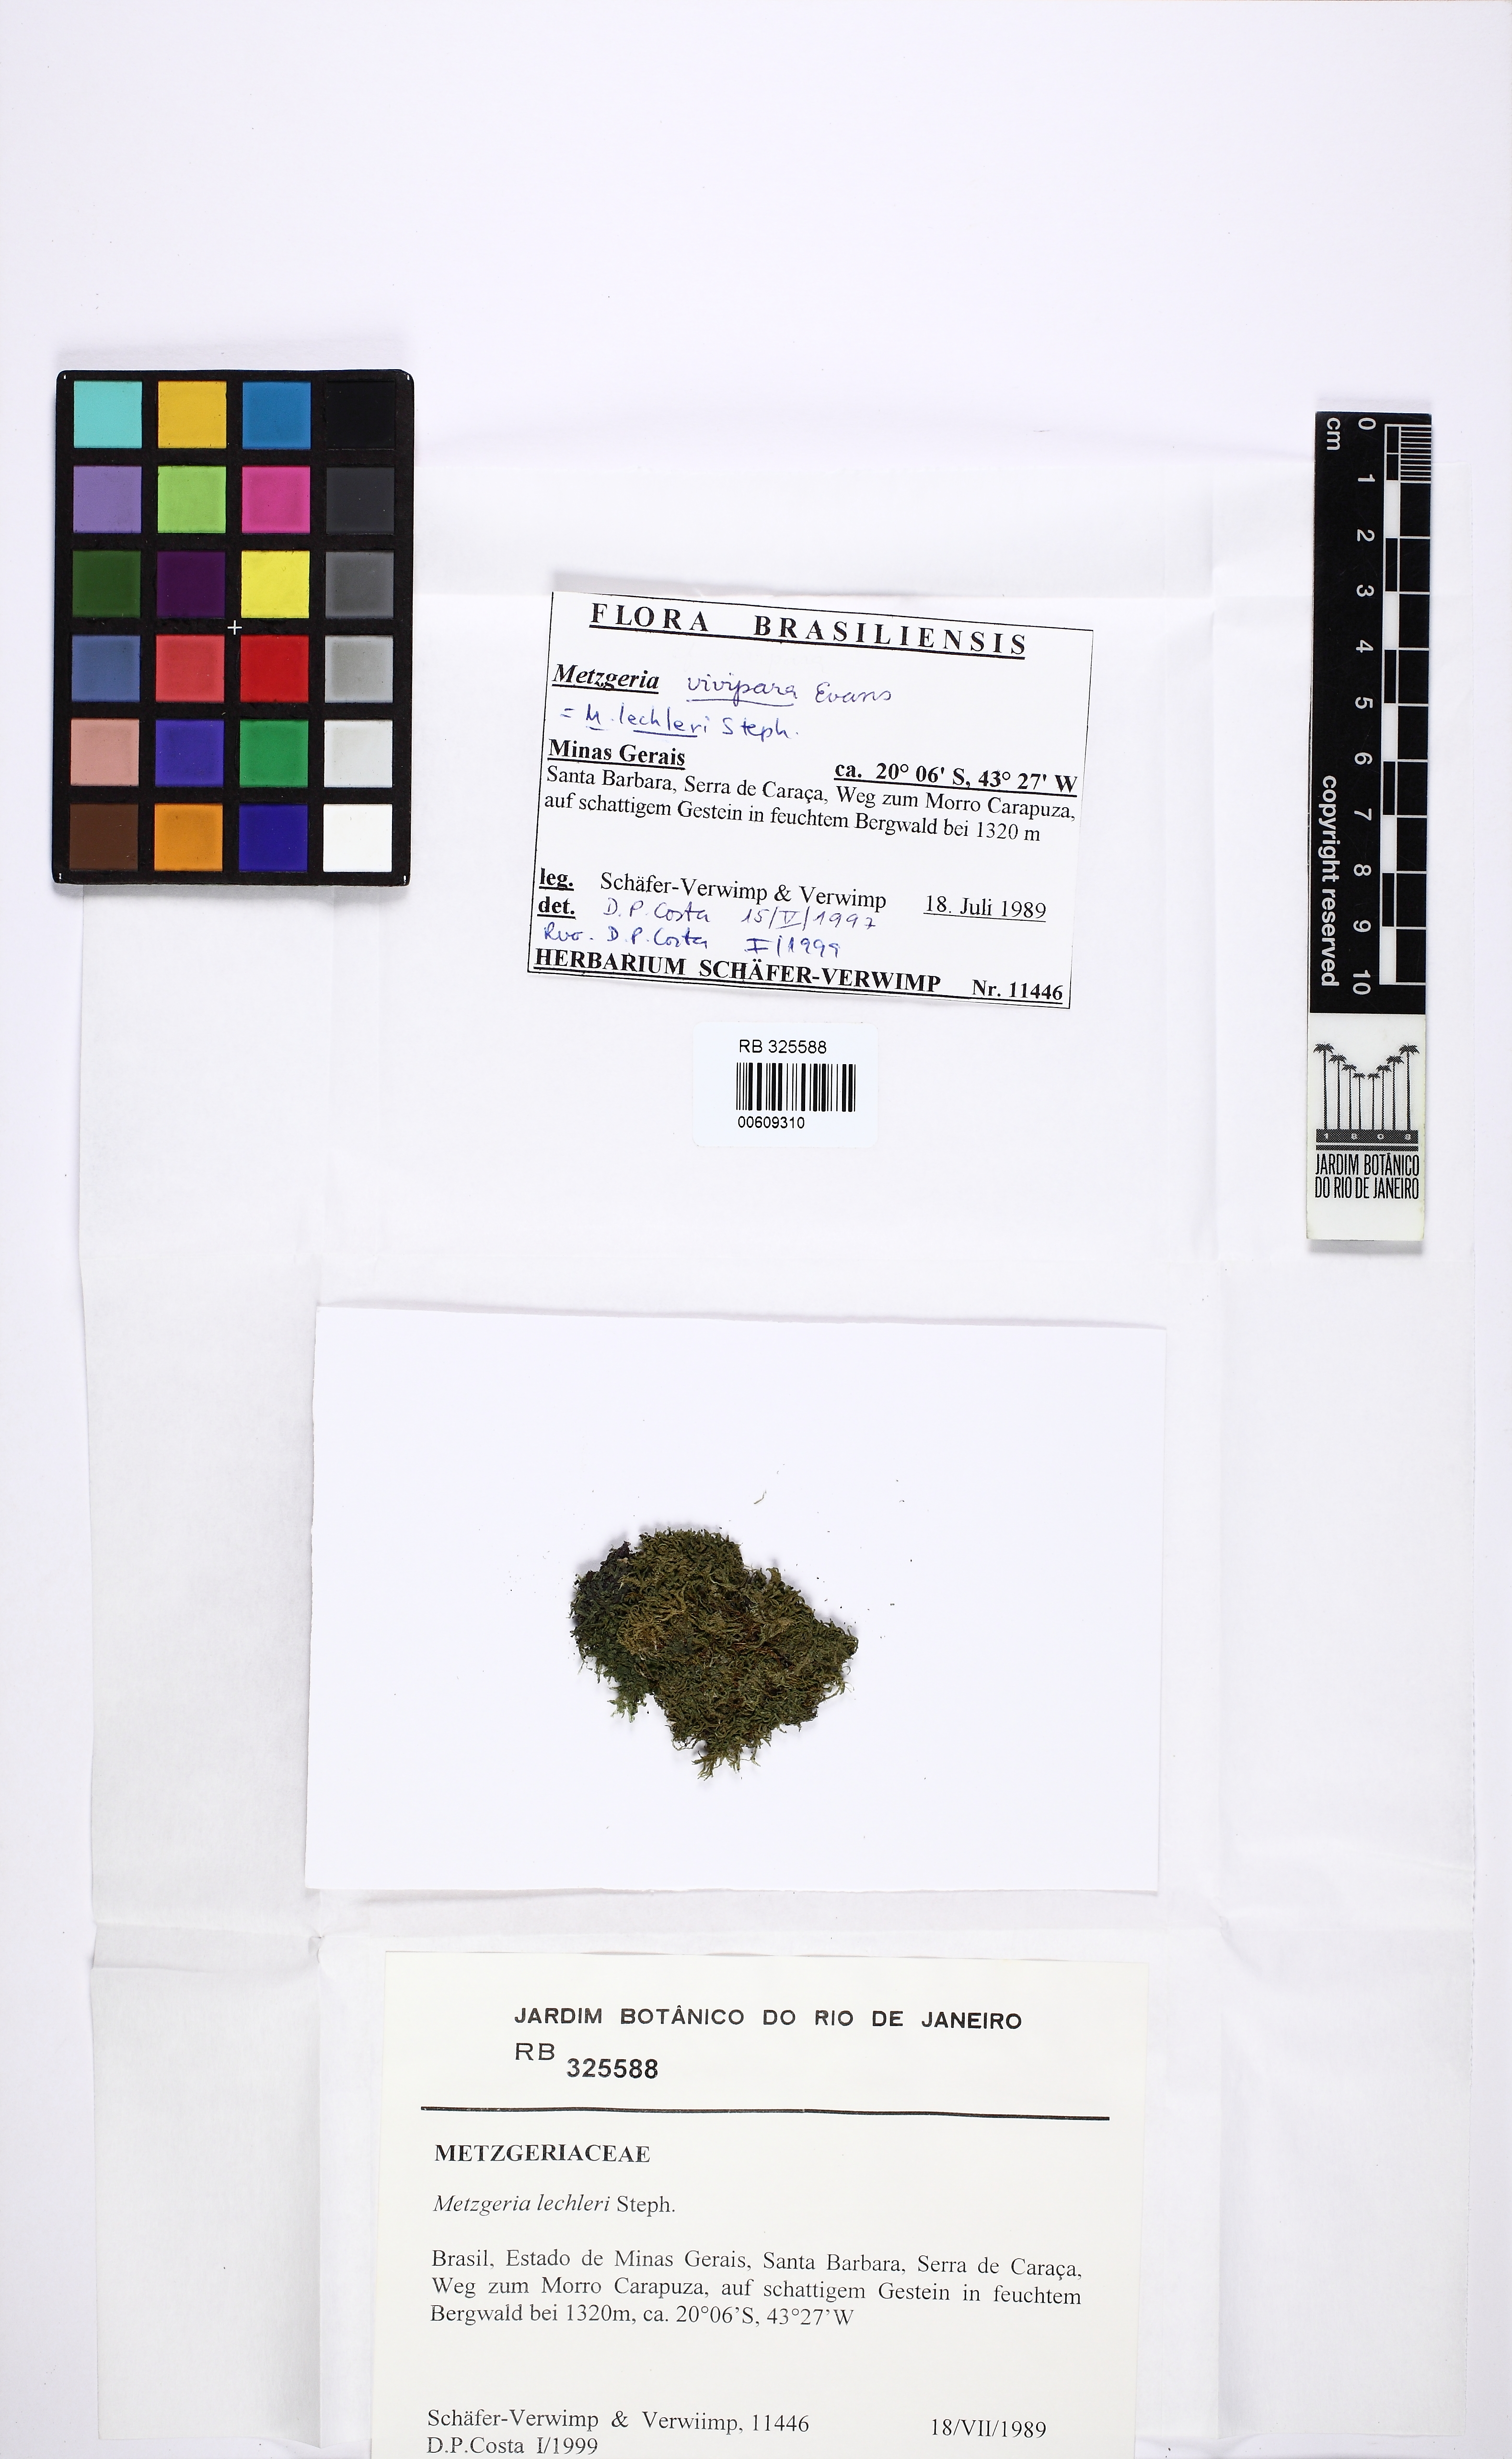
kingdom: Plantae
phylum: Marchantiophyta
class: Jungermanniopsida
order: Metzgeriales
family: Metzgeriaceae
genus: Metzgeria
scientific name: Metzgeria lechleri
